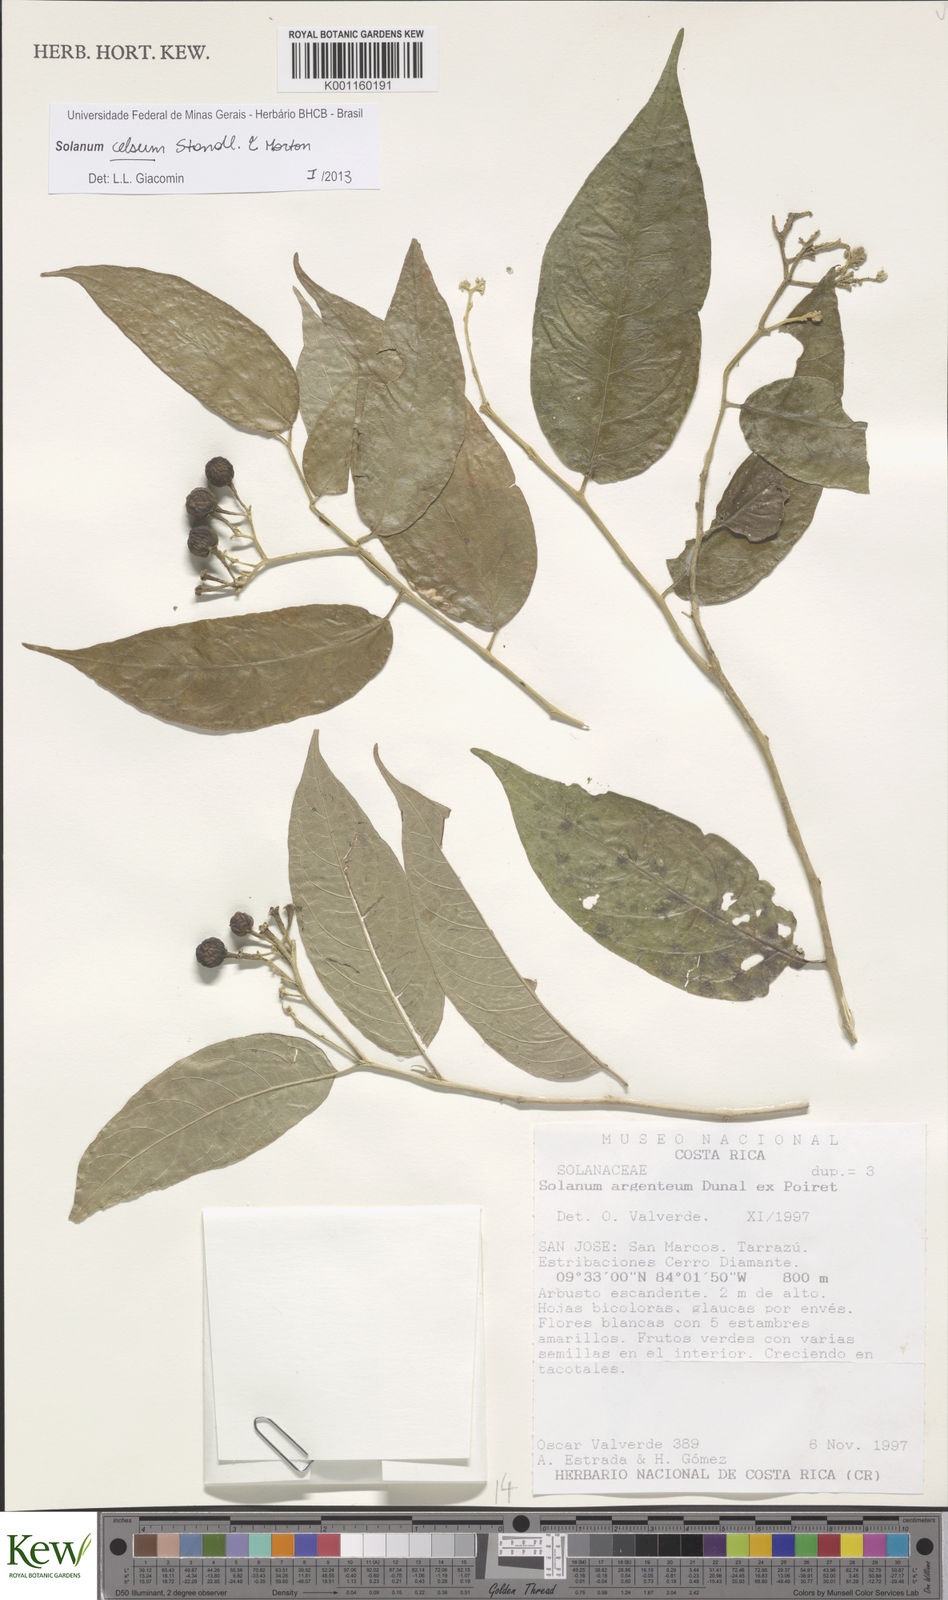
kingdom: Plantae
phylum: Tracheophyta
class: Magnoliopsida
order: Solanales
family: Solanaceae
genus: Solanum
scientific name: Solanum celsum
